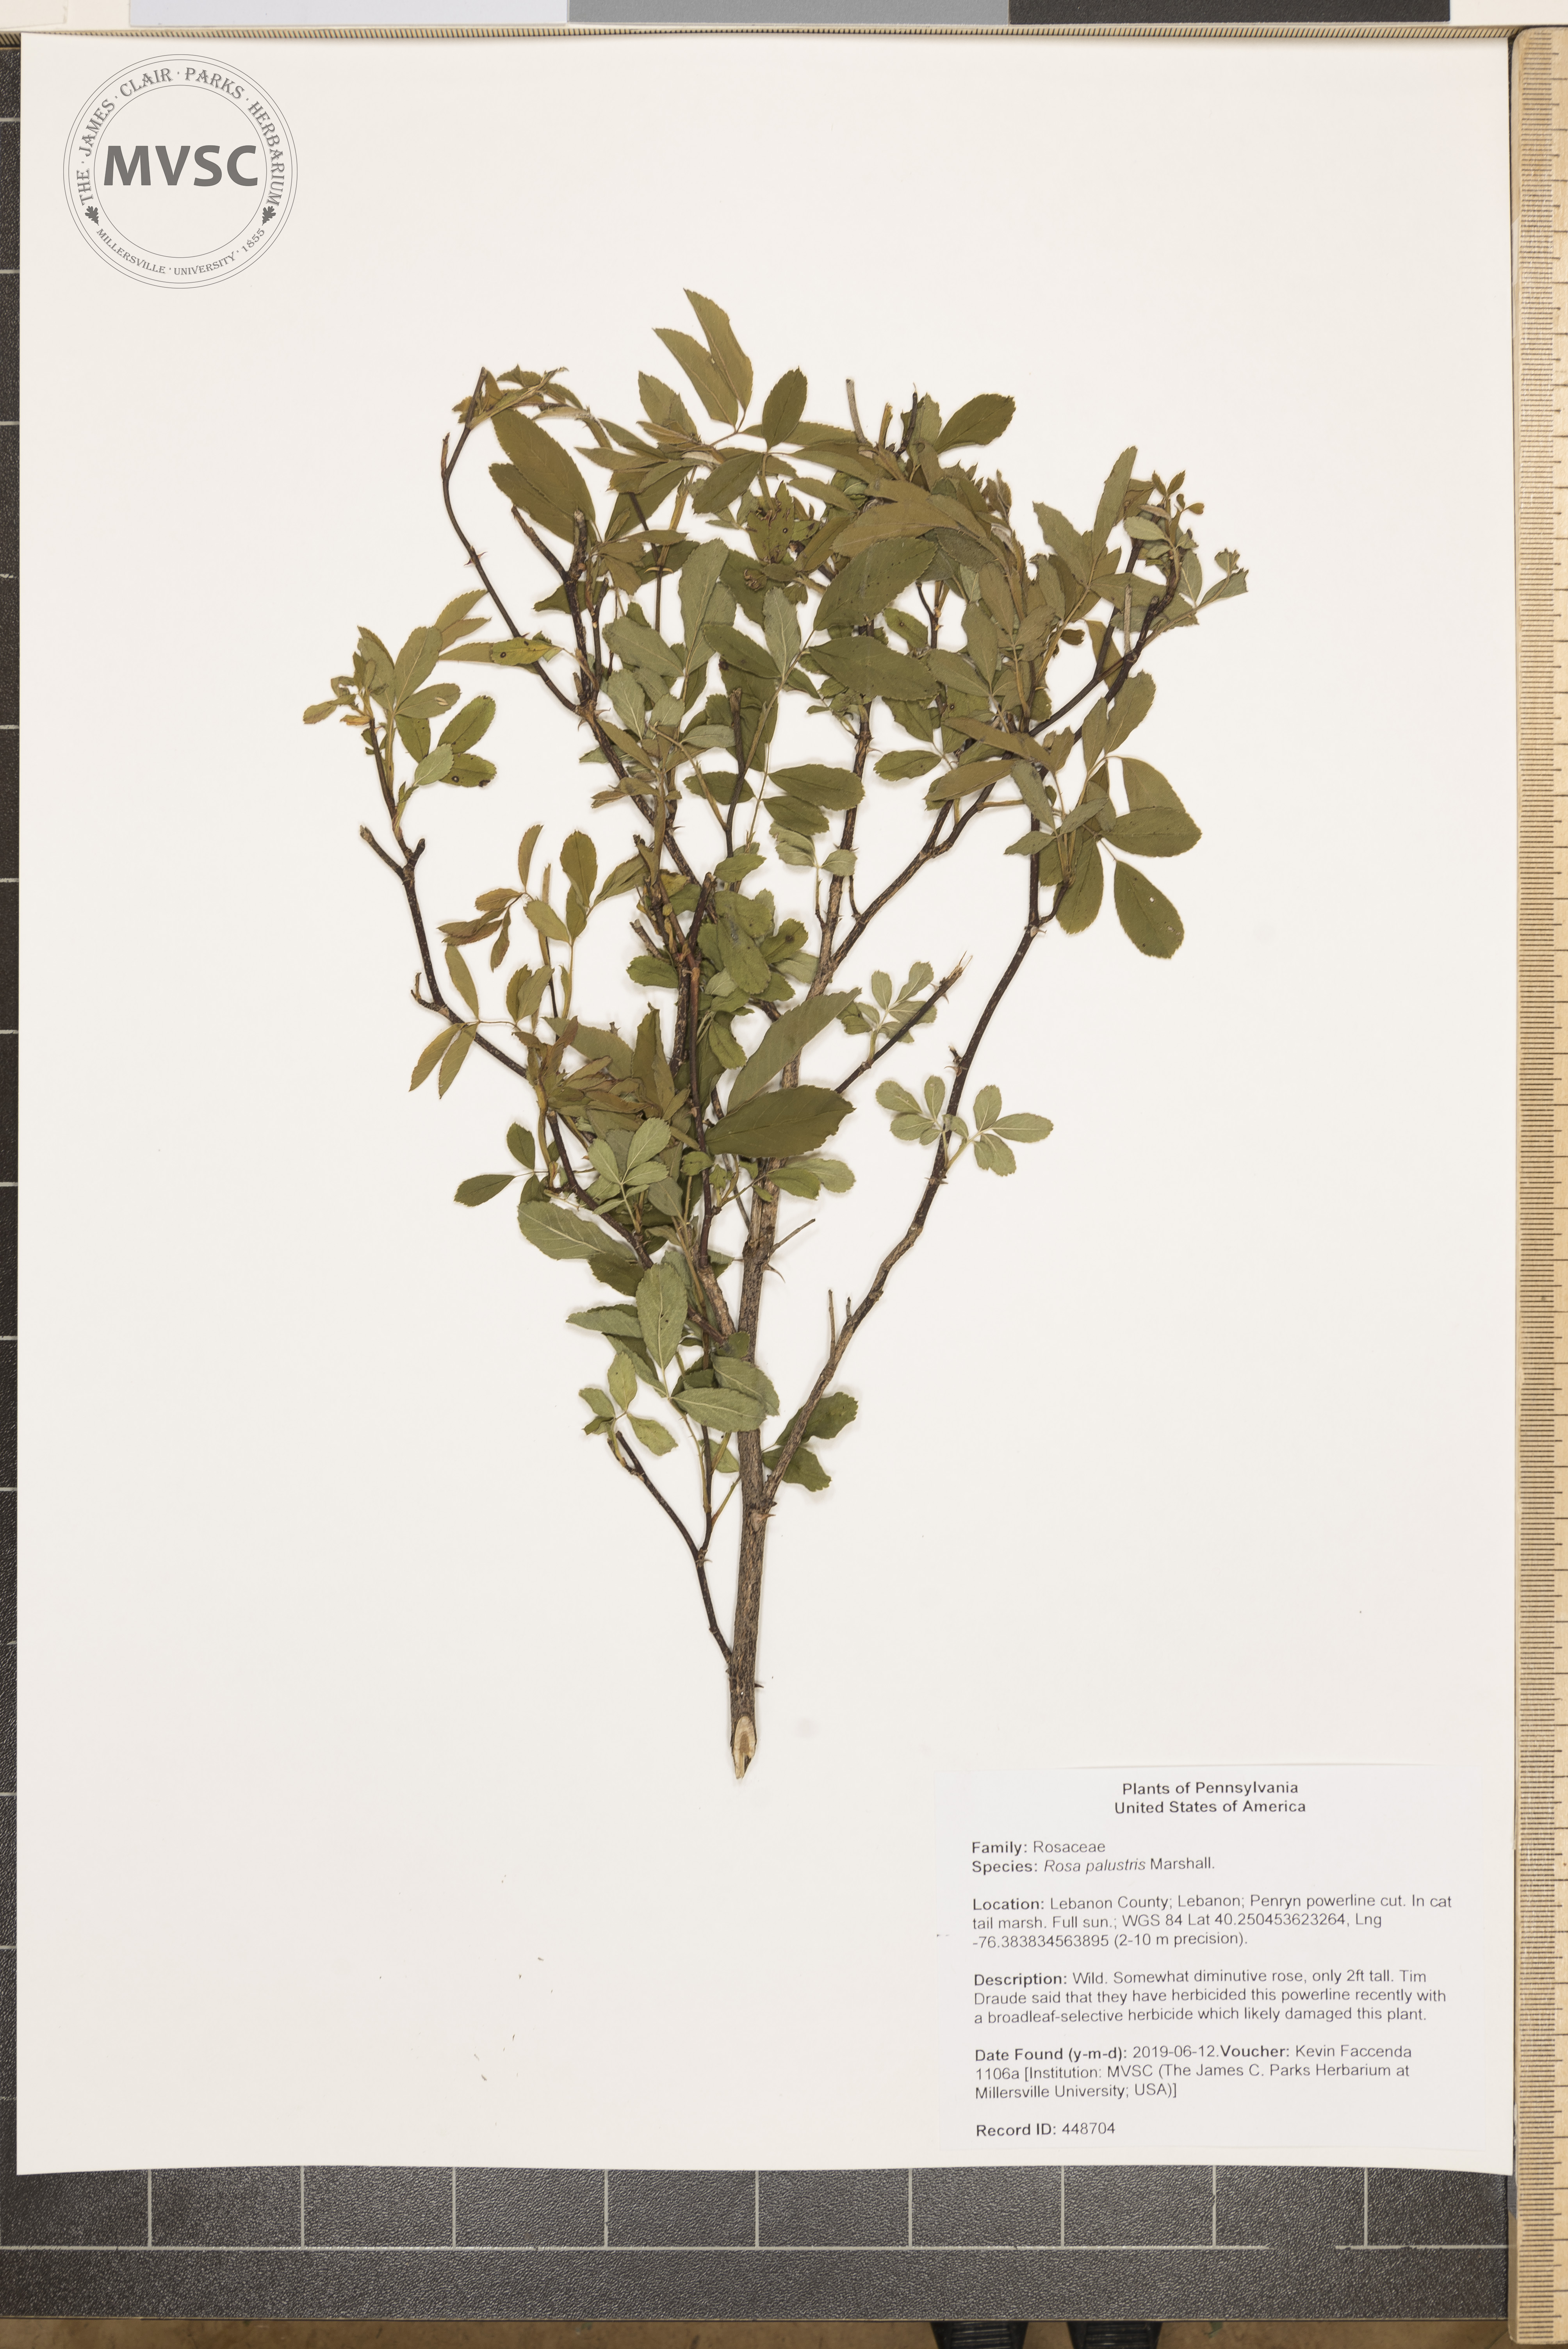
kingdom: Plantae
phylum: Tracheophyta
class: Magnoliopsida
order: Rosales
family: Rosaceae
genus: Rosa
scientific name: Rosa palustris
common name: Swamp rose
